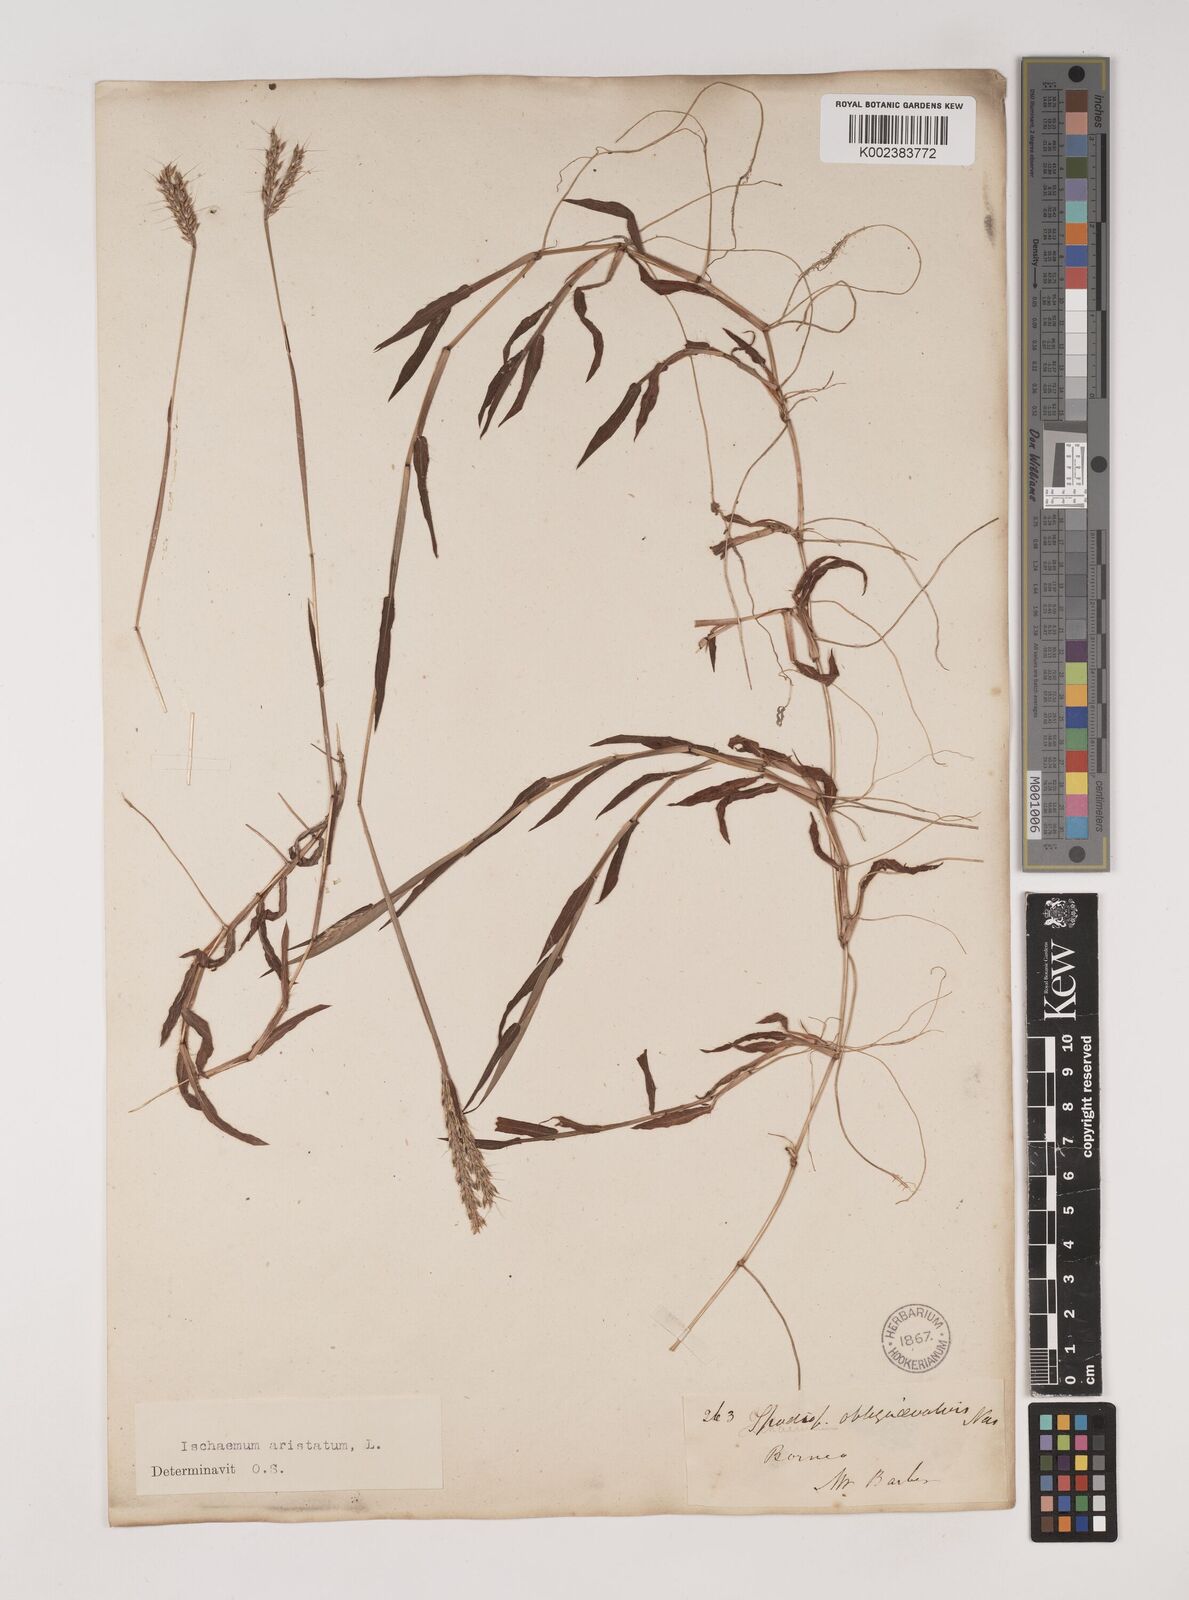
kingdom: Plantae
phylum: Tracheophyta
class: Liliopsida
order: Poales
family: Poaceae
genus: Polytrias
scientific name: Polytrias indica
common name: Indian murainagrass
